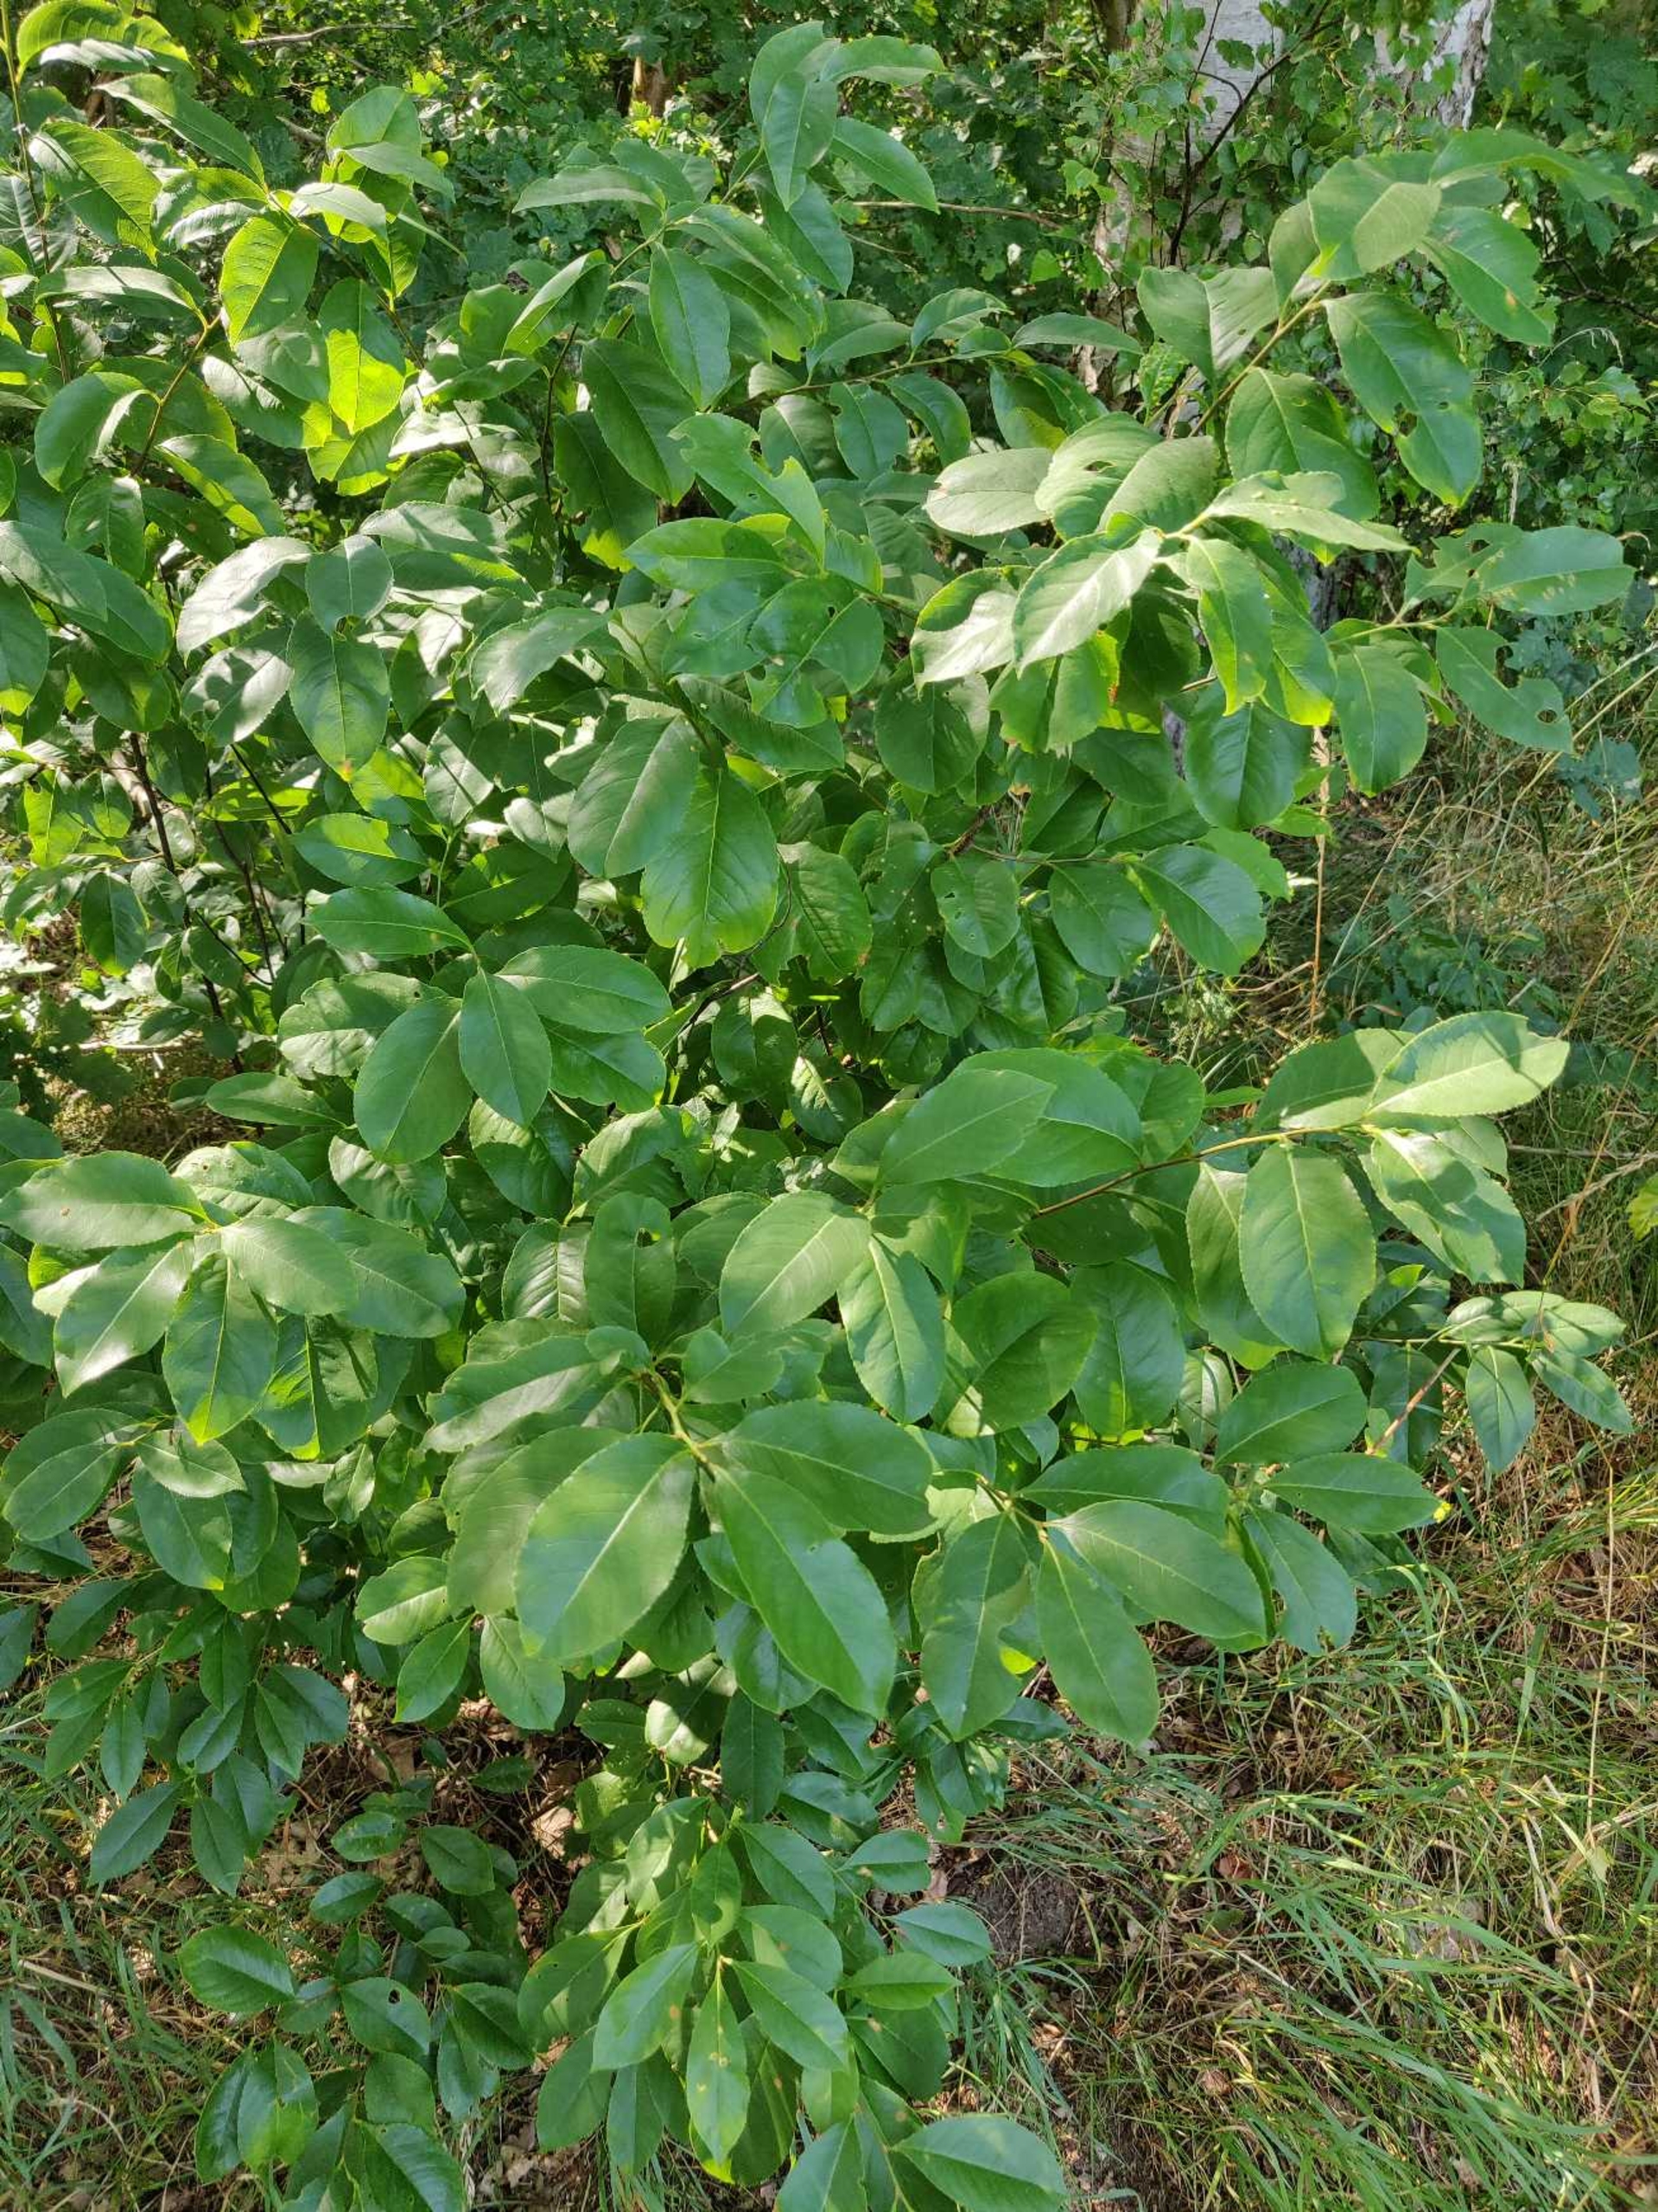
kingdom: Plantae
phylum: Tracheophyta
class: Magnoliopsida
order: Rosales
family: Rosaceae
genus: Prunus
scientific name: Prunus serotina
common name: Glansbladet hæg
